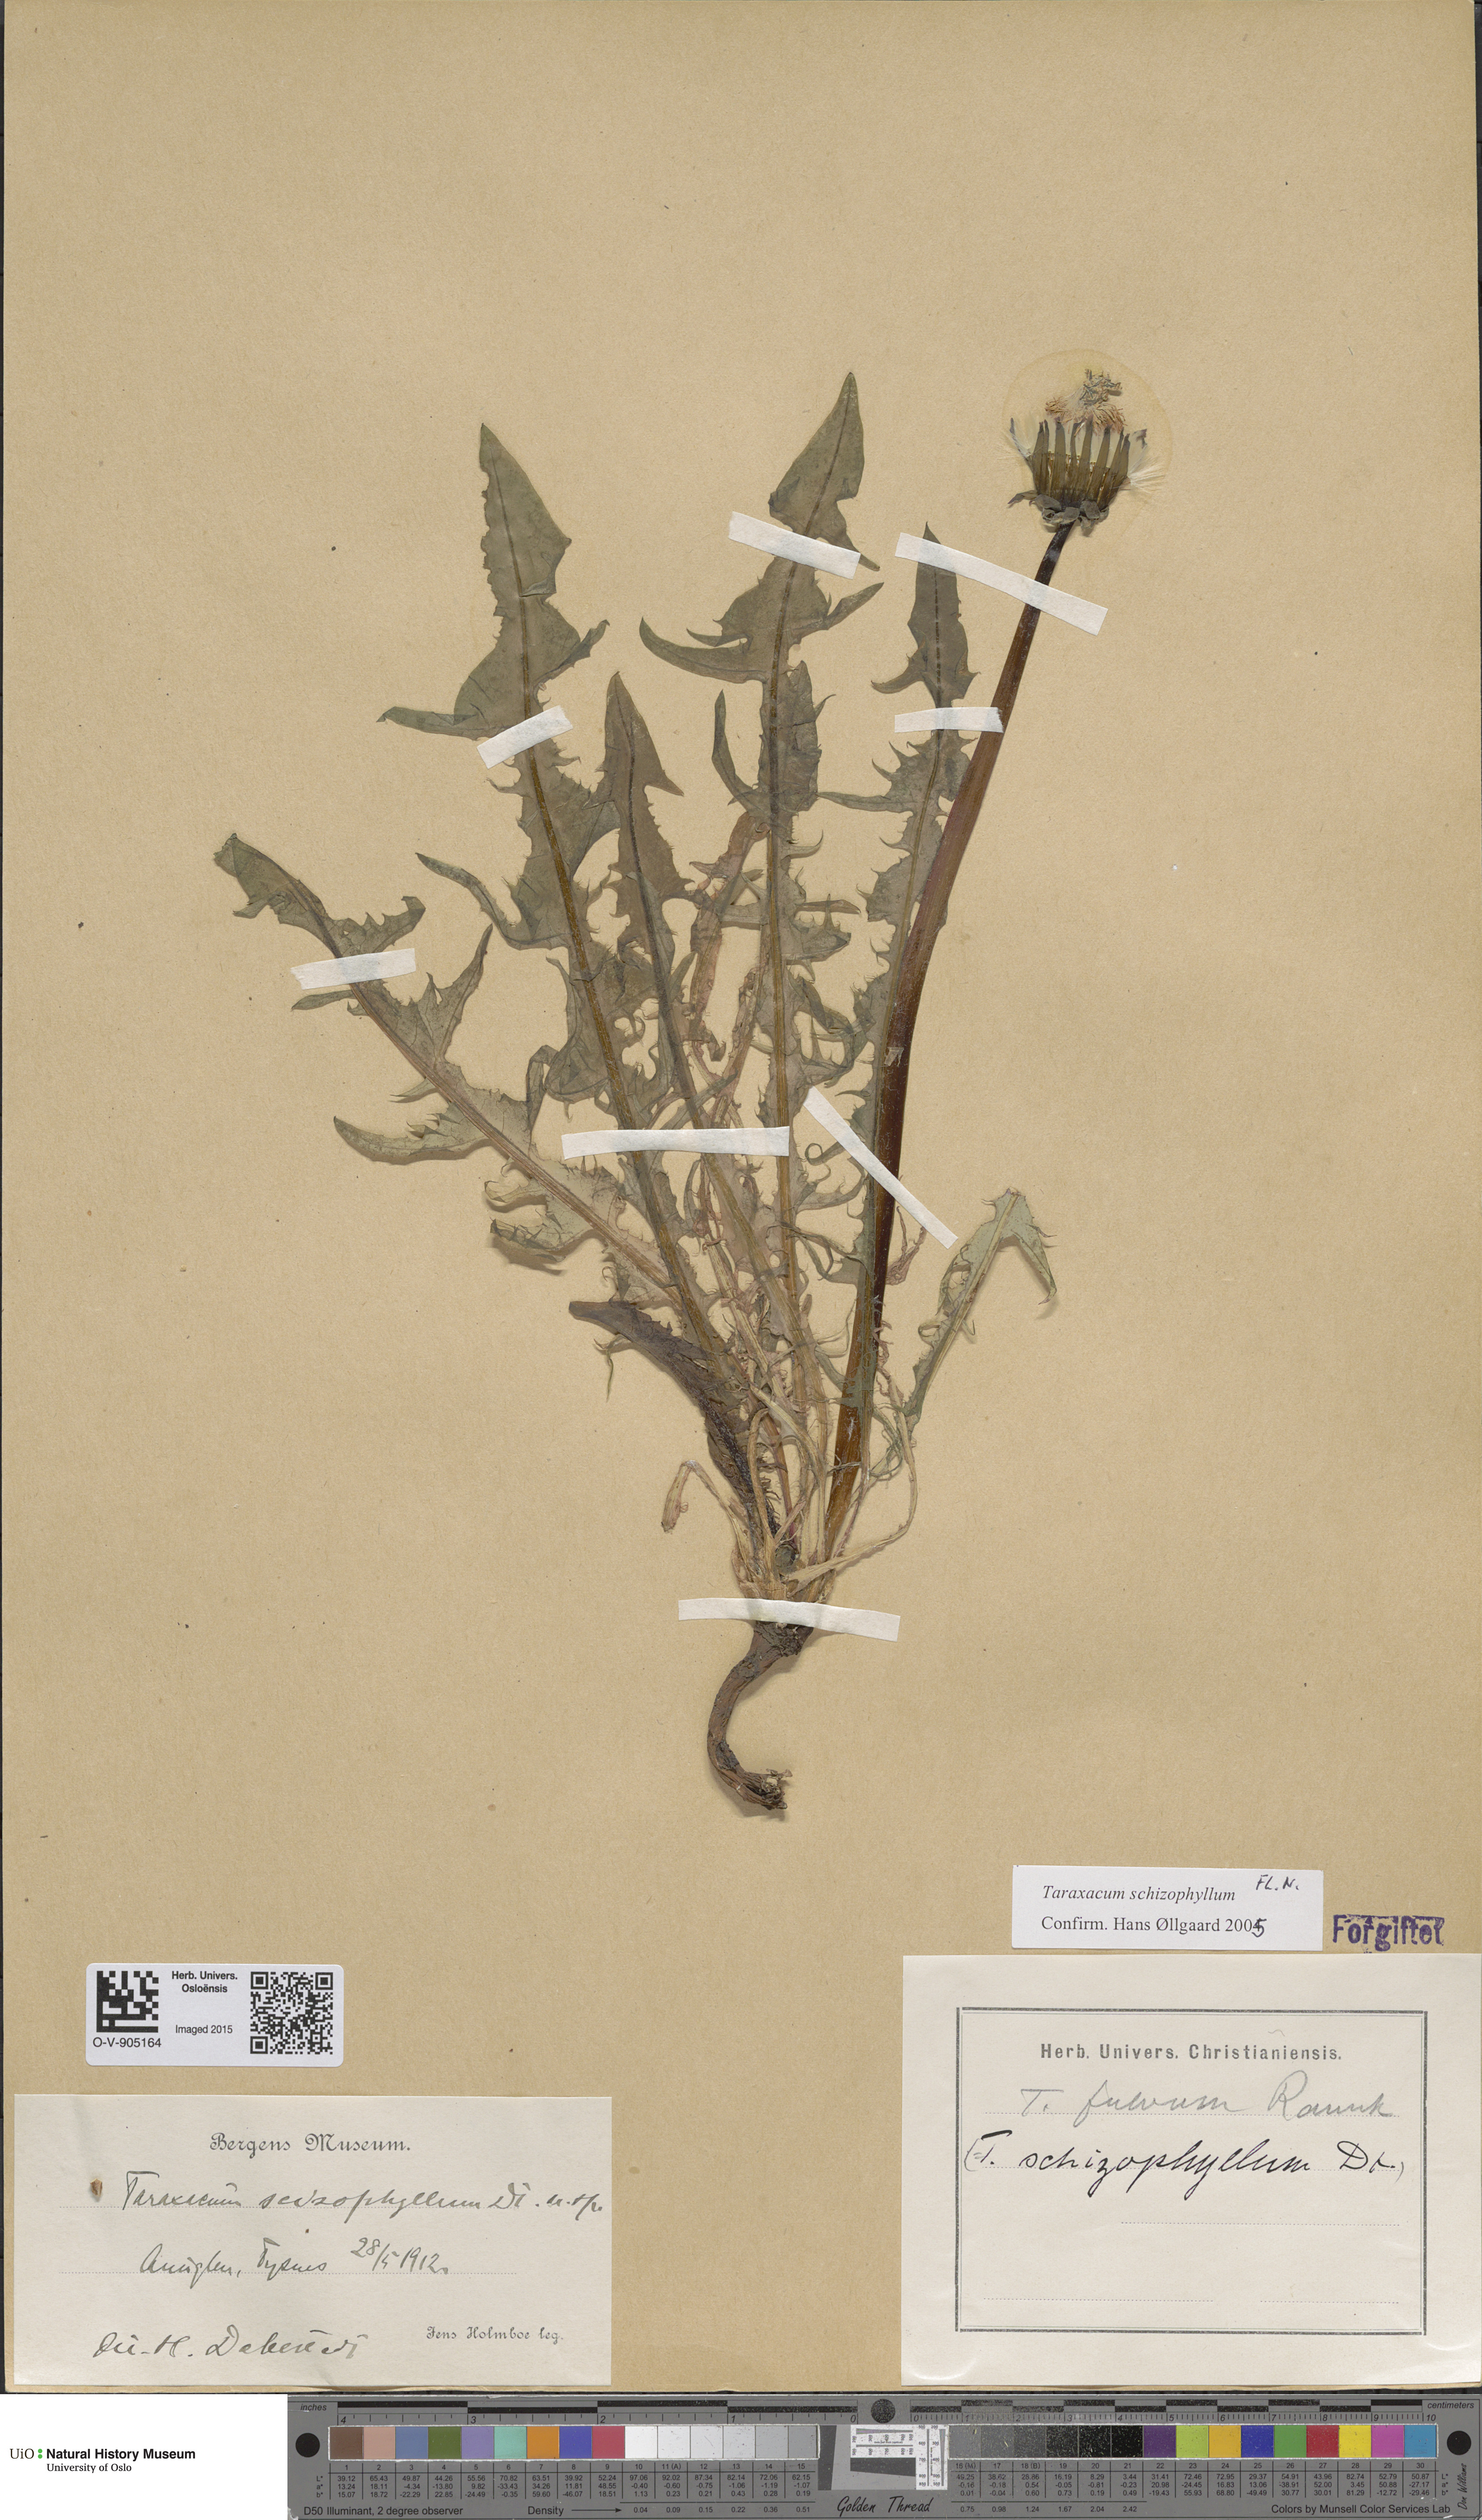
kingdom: Plantae
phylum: Tracheophyta
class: Magnoliopsida
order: Asterales
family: Asteraceae
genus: Taraxacum
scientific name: Taraxacum fulvum
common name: Cinnamon-fruited dandelion
